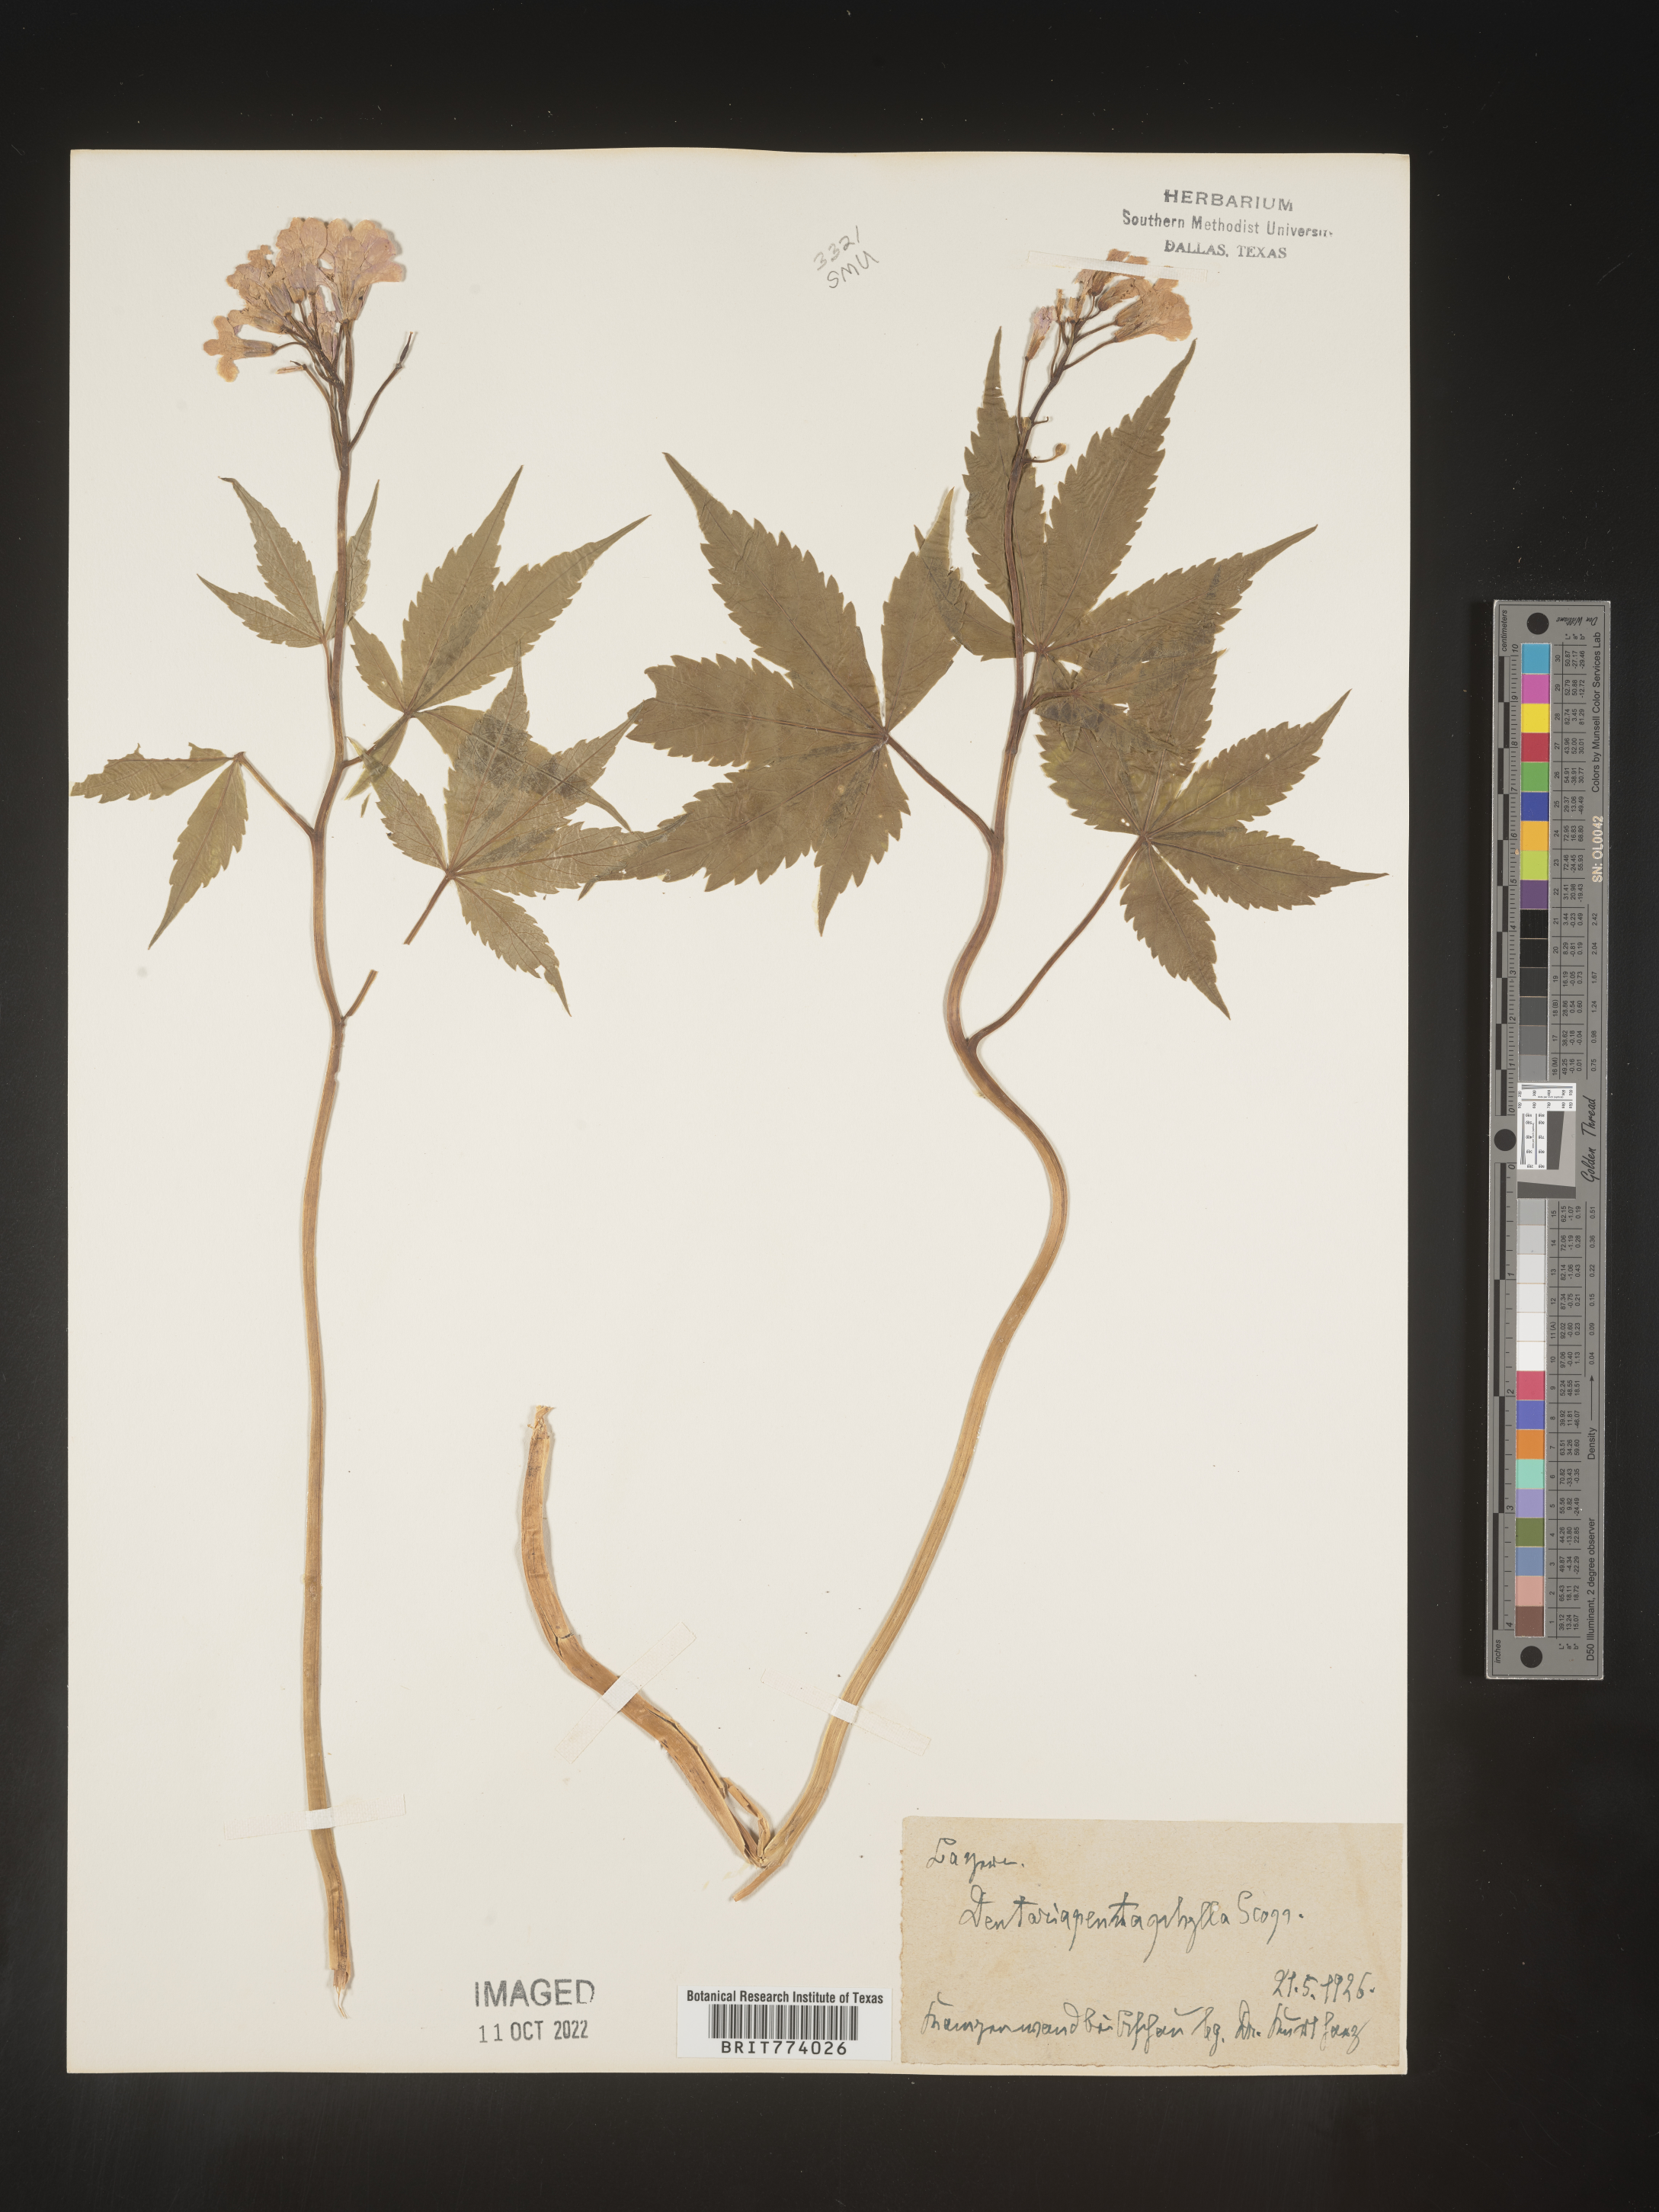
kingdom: Plantae
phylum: Tracheophyta
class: Magnoliopsida
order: Brassicales
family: Brassicaceae
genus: Cardamine
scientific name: Cardamine
